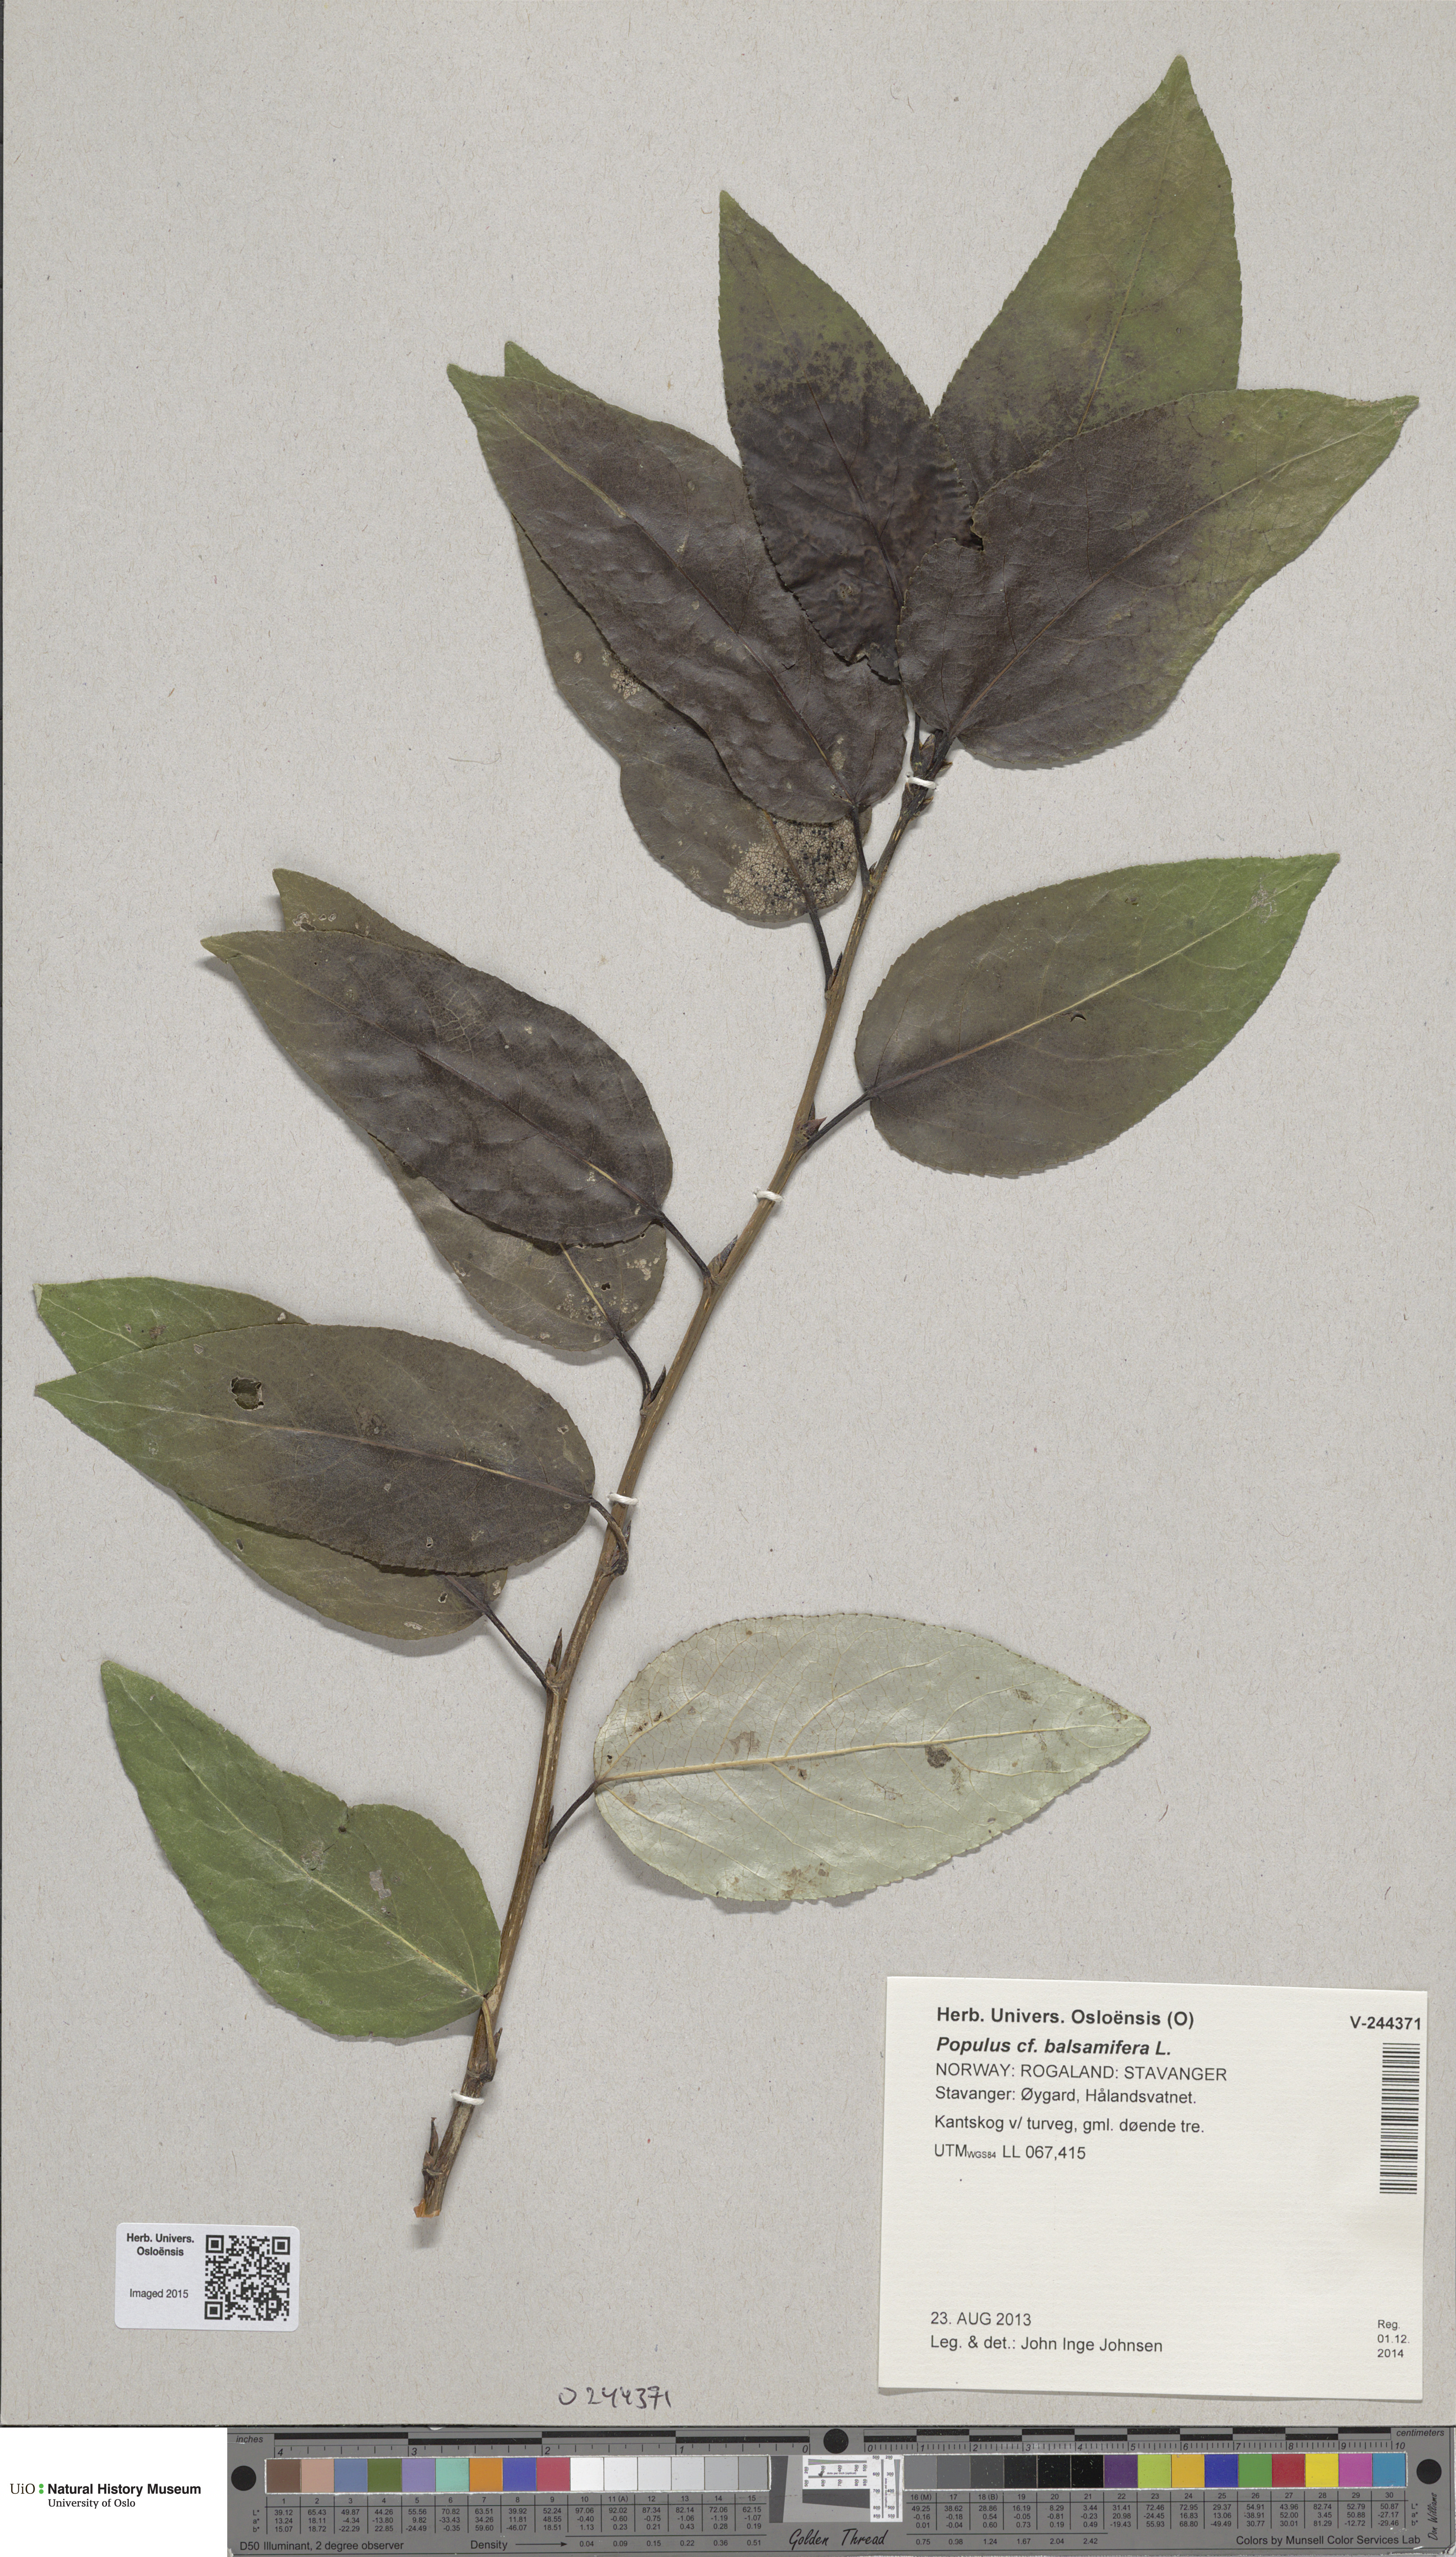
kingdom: Plantae
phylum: Tracheophyta
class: Magnoliopsida
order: Malpighiales
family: Salicaceae
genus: Populus
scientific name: Populus balsamifera
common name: Balsam poplar
